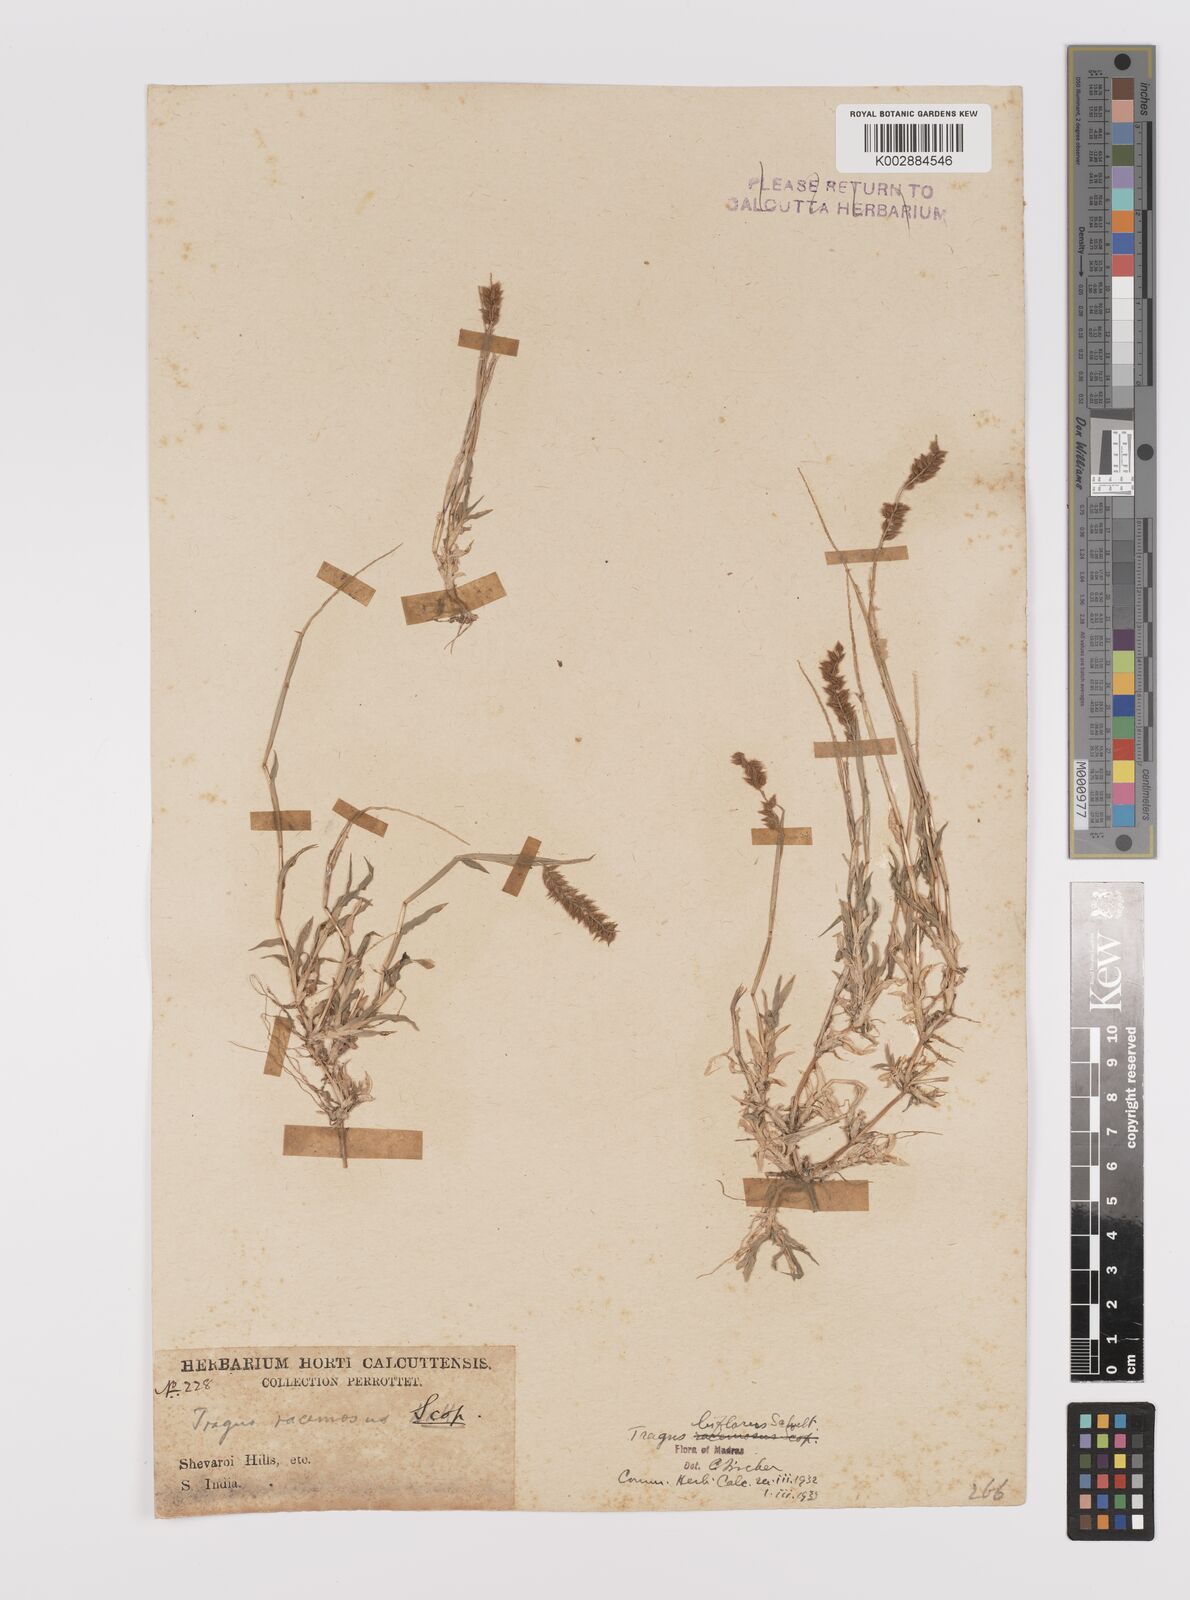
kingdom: Plantae
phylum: Tracheophyta
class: Liliopsida
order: Poales
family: Poaceae
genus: Tragus
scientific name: Tragus mongolorum
